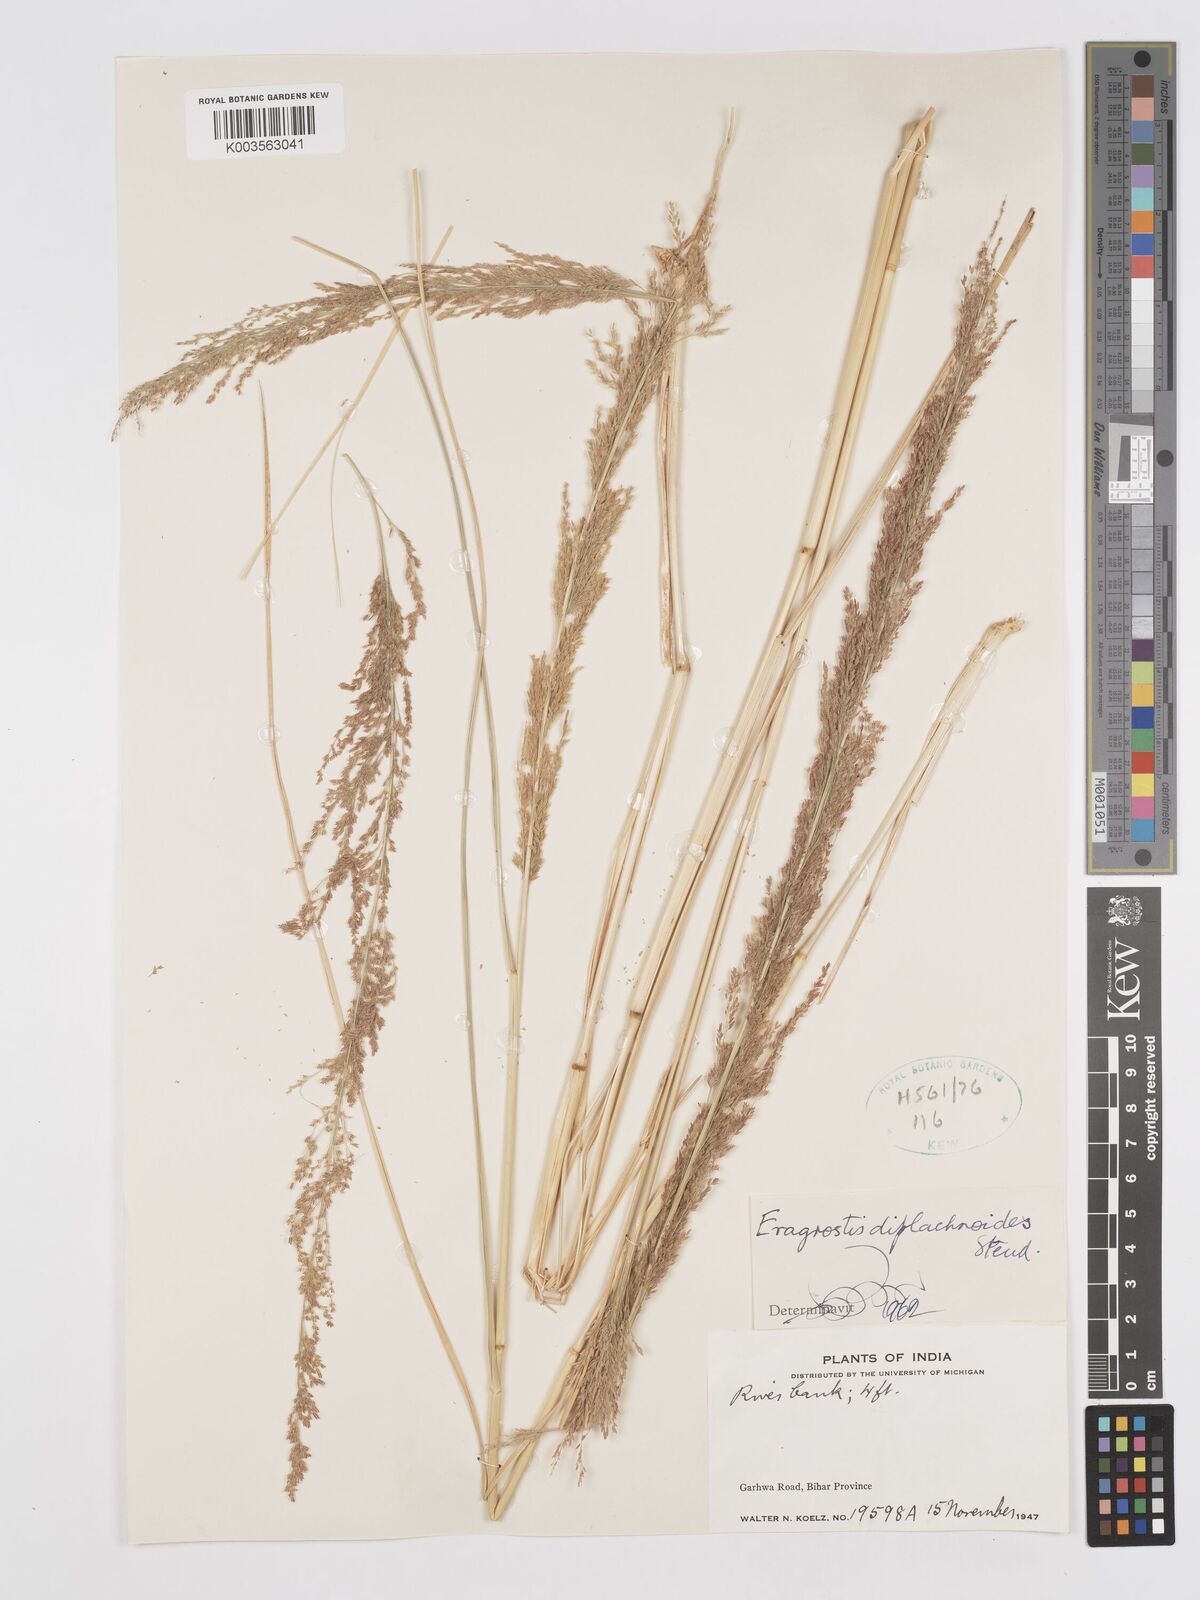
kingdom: Plantae
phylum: Tracheophyta
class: Liliopsida
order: Poales
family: Poaceae
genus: Eragrostis
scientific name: Eragrostis japonica
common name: Pond lovegrass
